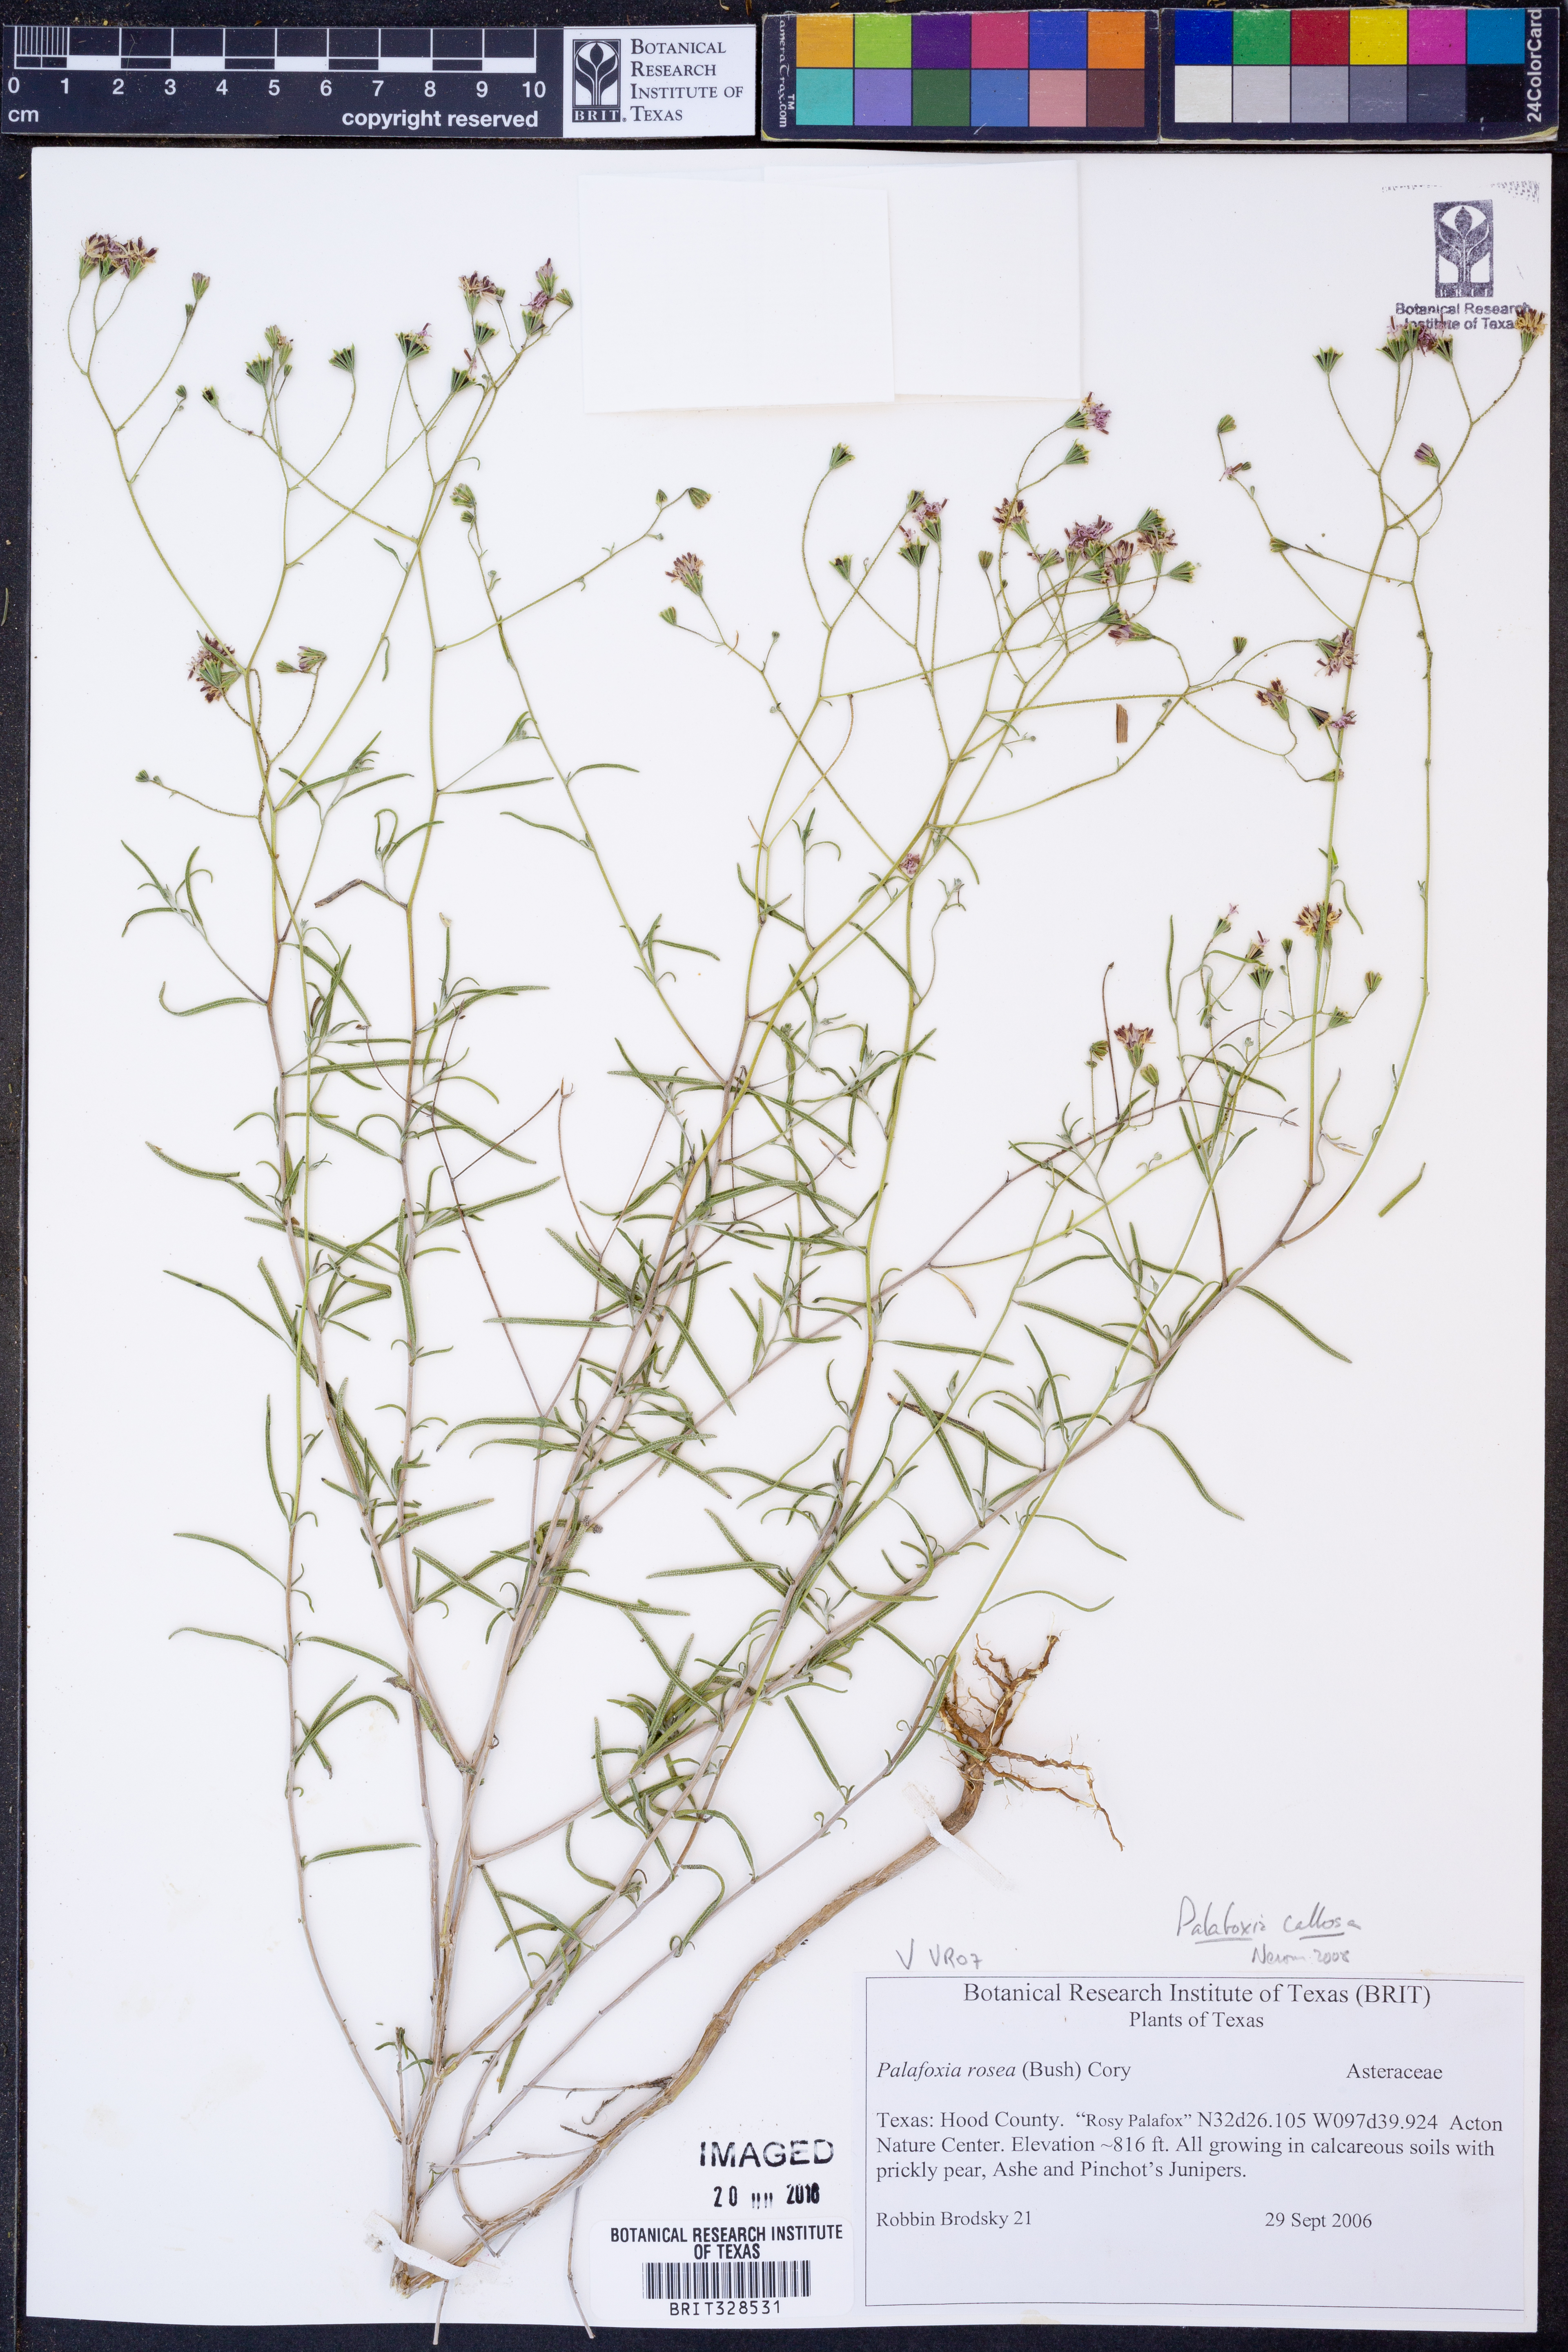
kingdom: Plantae
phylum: Tracheophyta
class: Magnoliopsida
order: Asterales
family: Asteraceae
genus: Palafoxia
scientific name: Palafoxia callosa
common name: Small palafox
